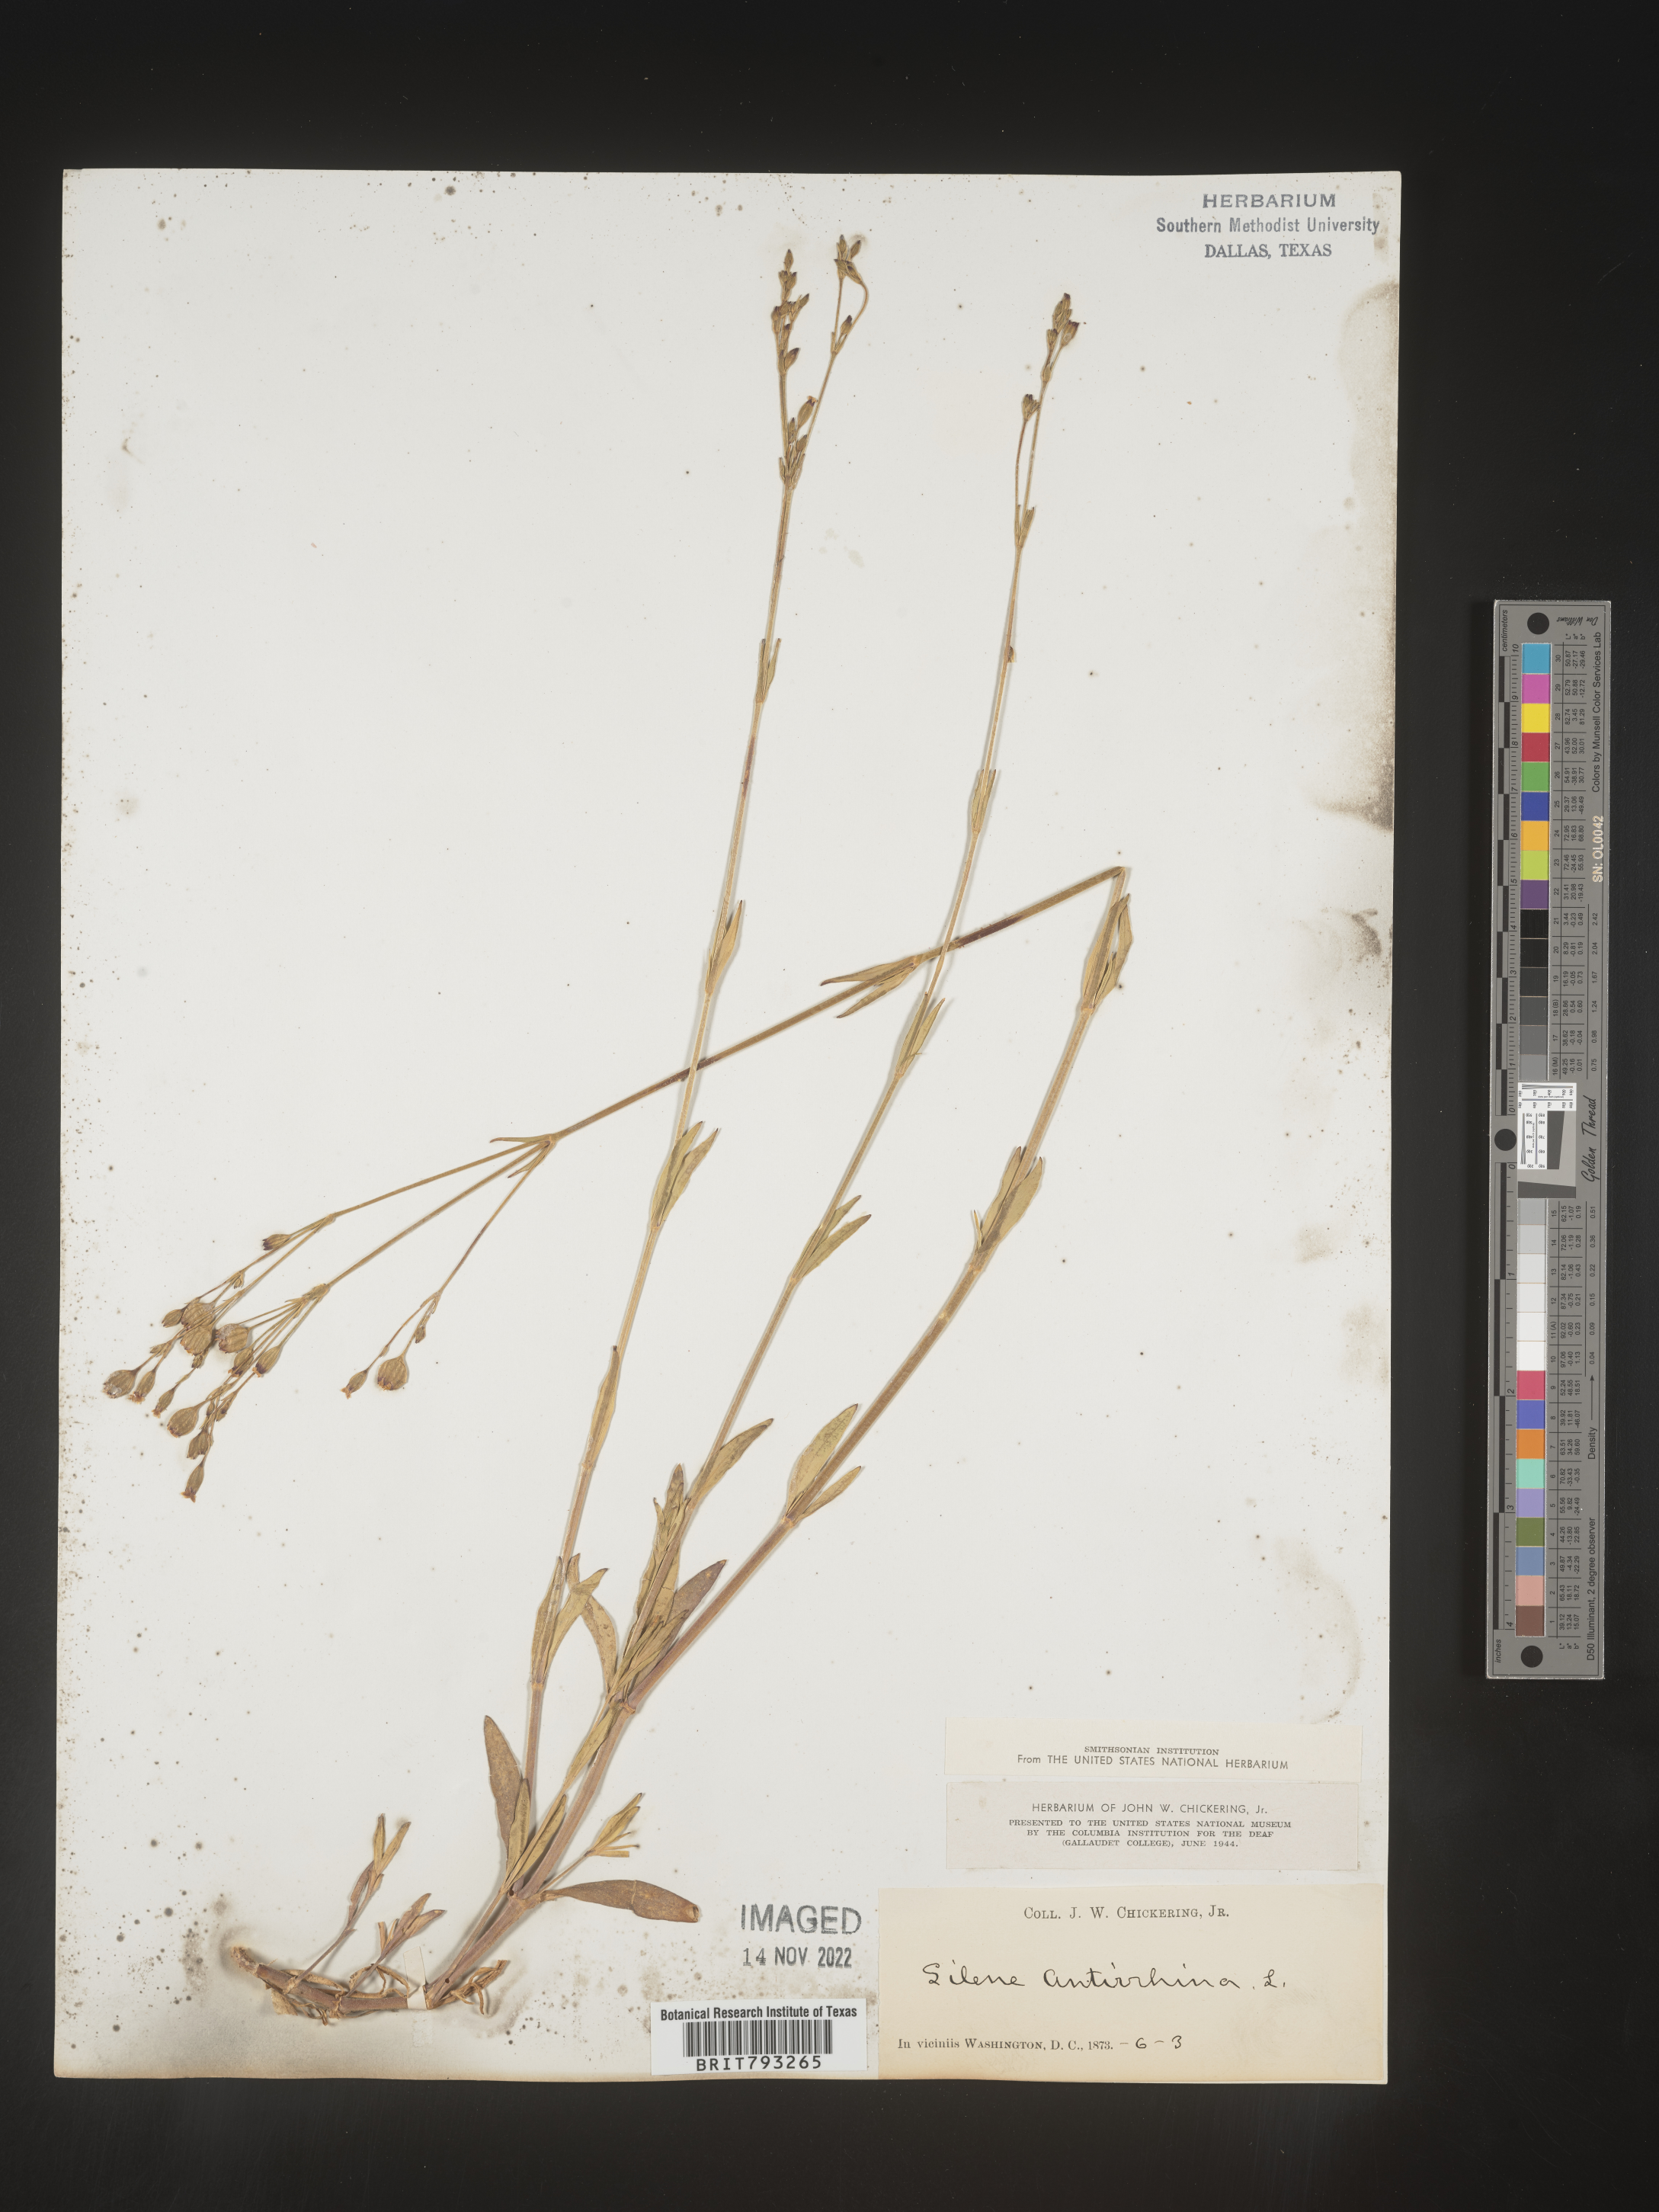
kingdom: Plantae
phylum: Tracheophyta
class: Magnoliopsida
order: Caryophyllales
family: Caryophyllaceae
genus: Silene
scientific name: Silene antirrhina
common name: Sleepy catchfly
